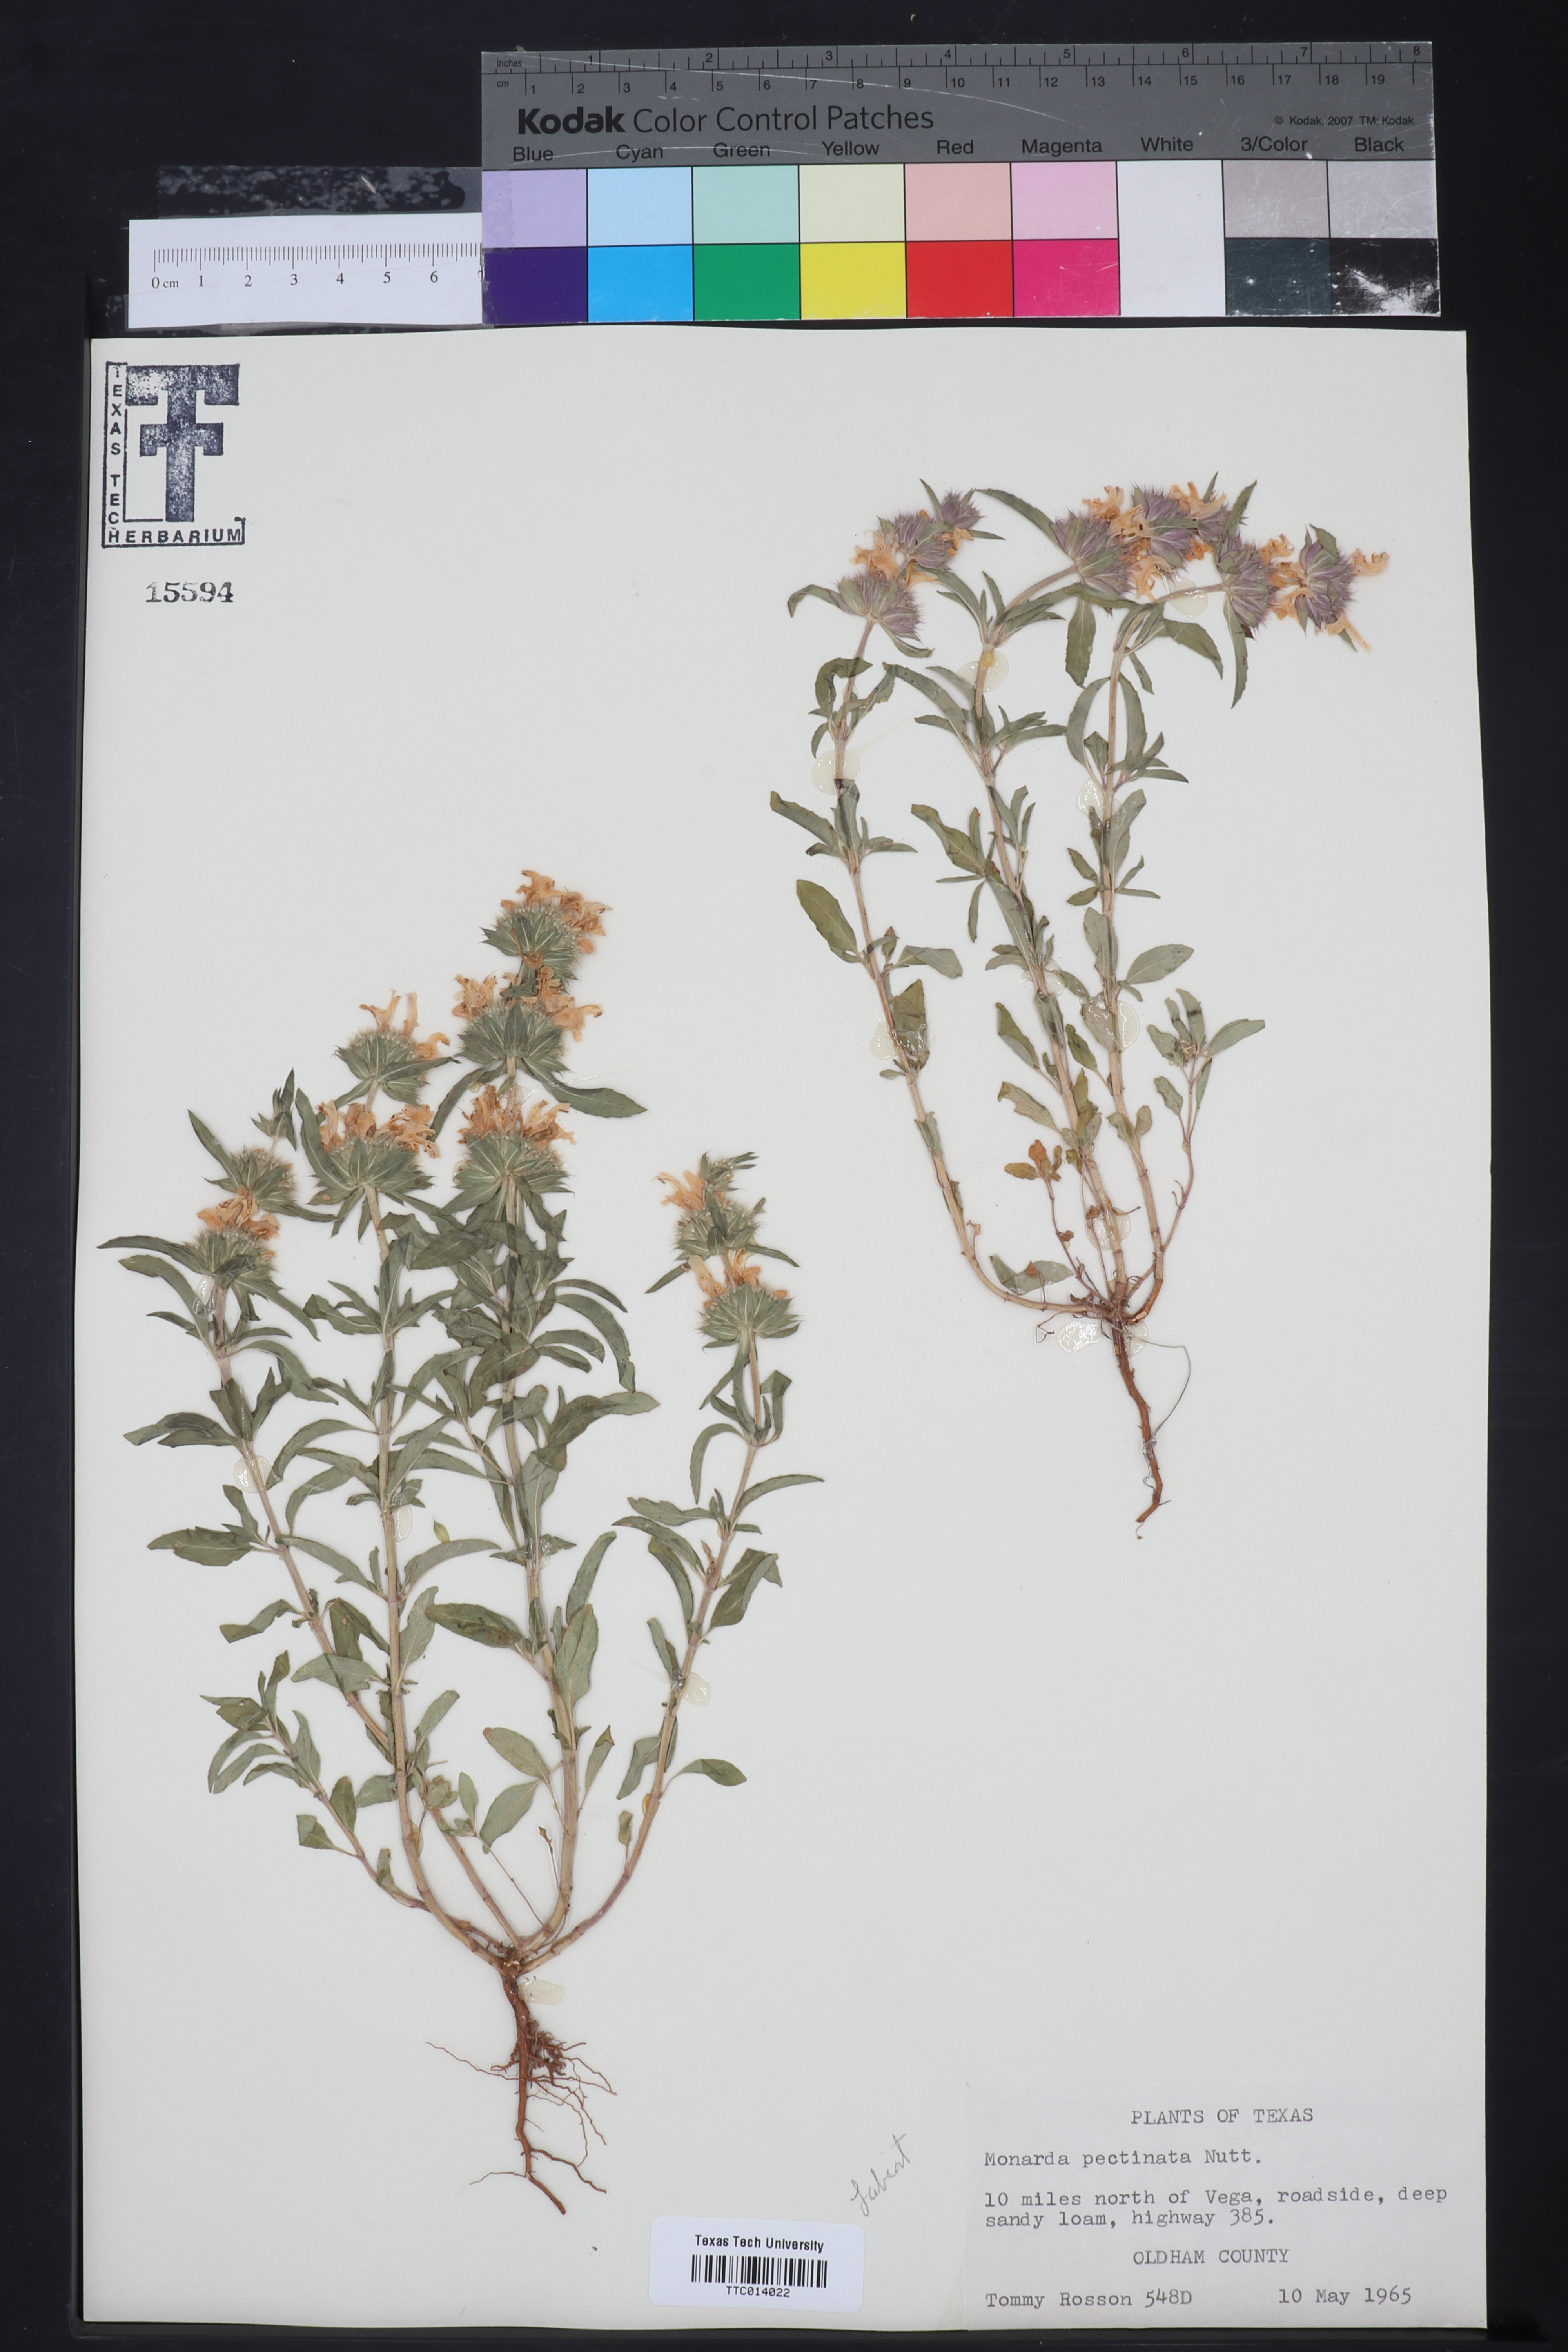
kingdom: Plantae
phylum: Tracheophyta
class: Magnoliopsida
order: Lamiales
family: Lamiaceae
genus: Monarda
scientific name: Monarda pectinata
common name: Plains beebalm
